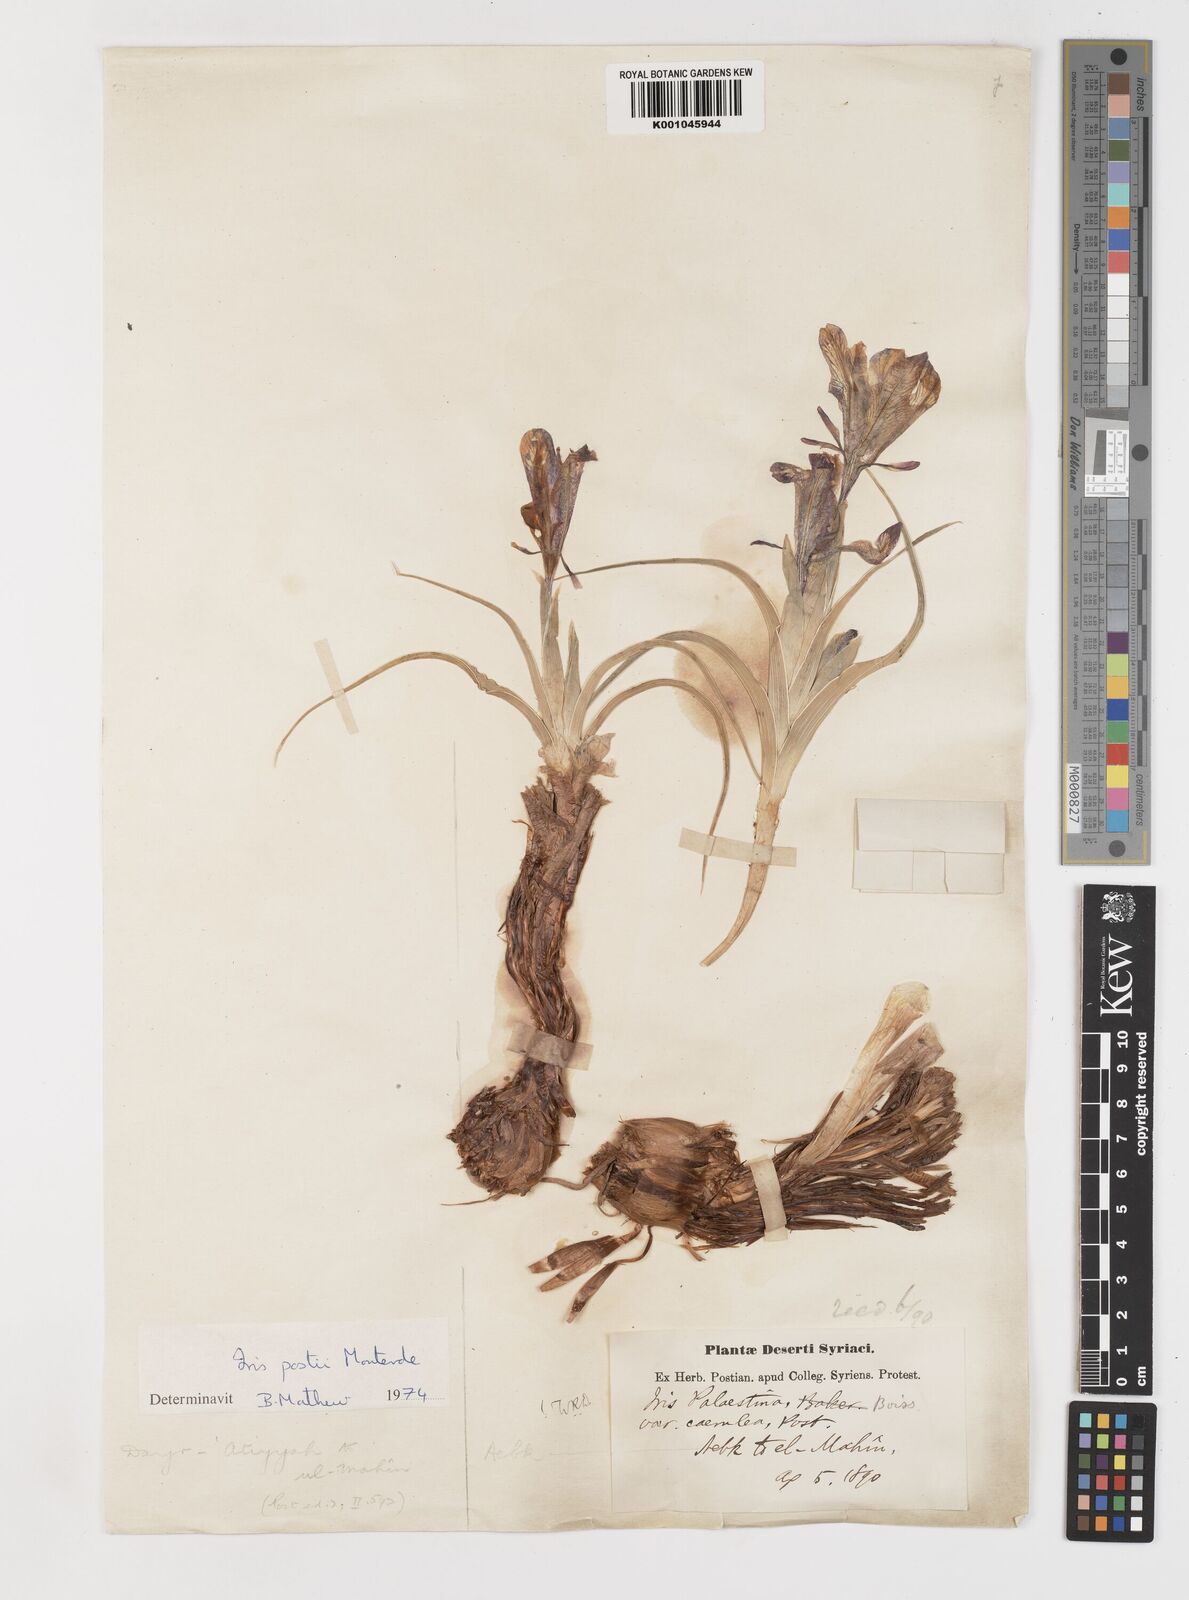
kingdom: Plantae
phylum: Tracheophyta
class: Liliopsida
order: Asparagales
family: Iridaceae
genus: Iris
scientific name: Iris postii
